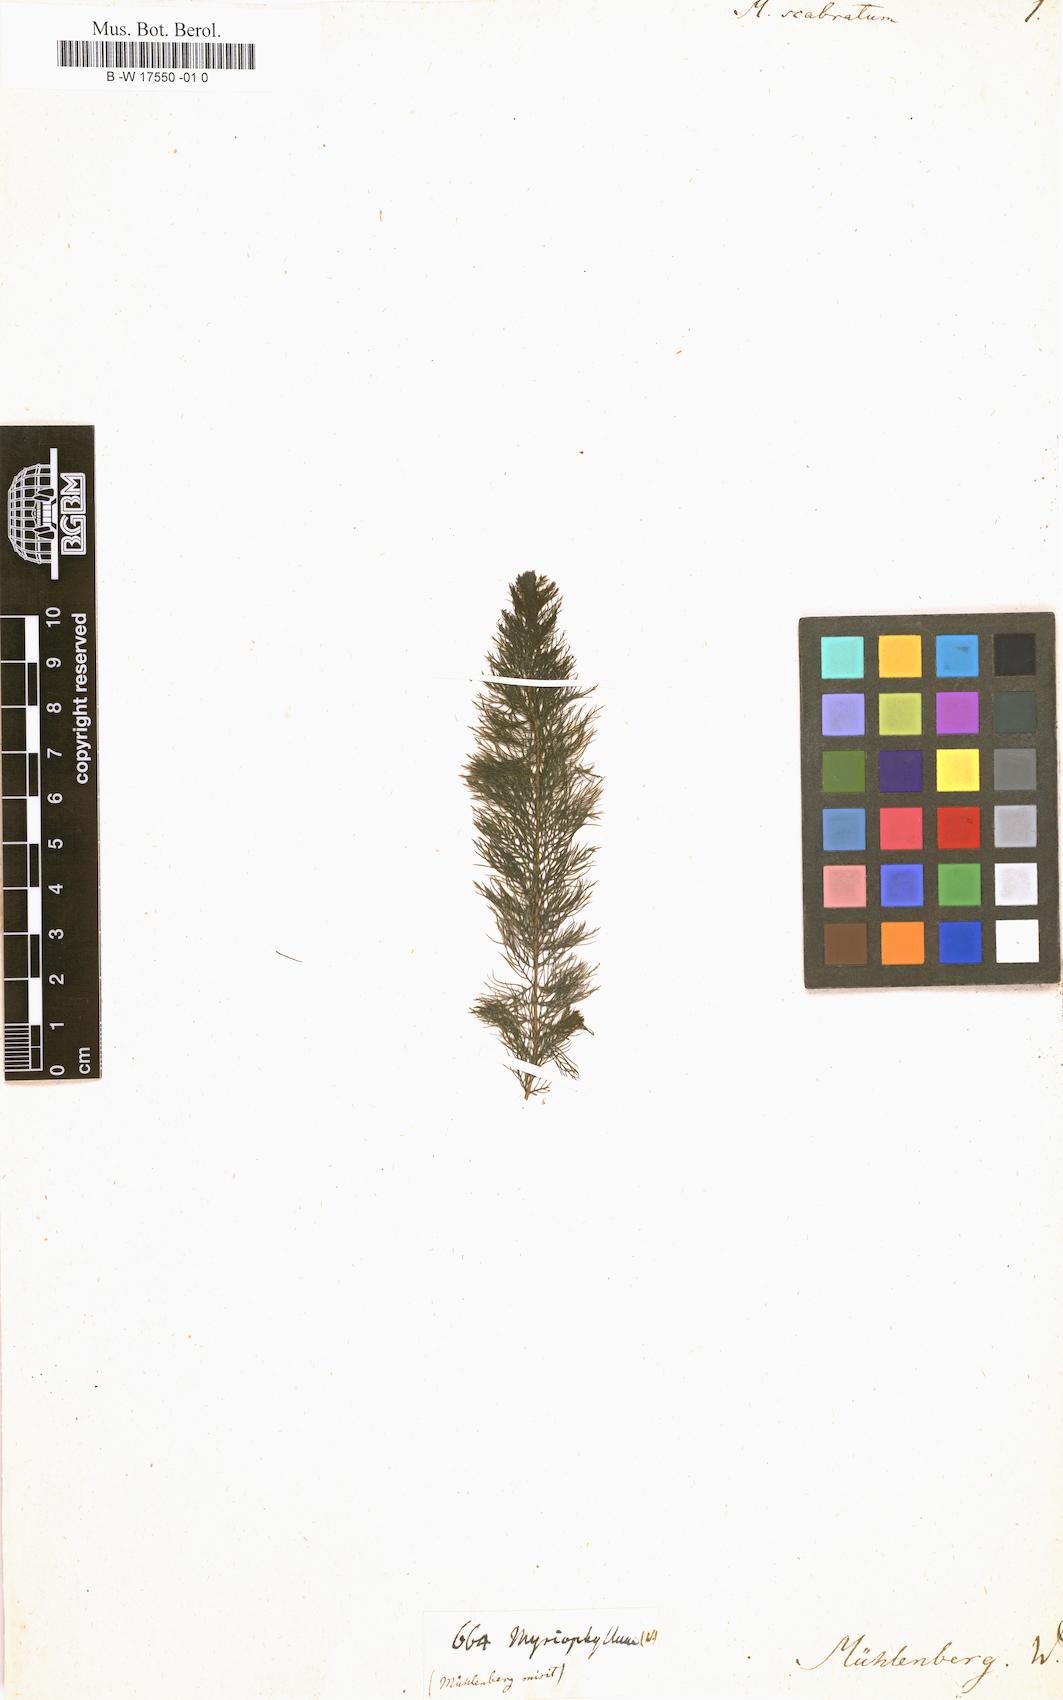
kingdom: Plantae
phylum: Tracheophyta
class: Magnoliopsida
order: Saxifragales
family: Haloragaceae
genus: Myriophyllum
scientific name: Myriophyllum pinnatum
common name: Cut-leaved water-milfoil
